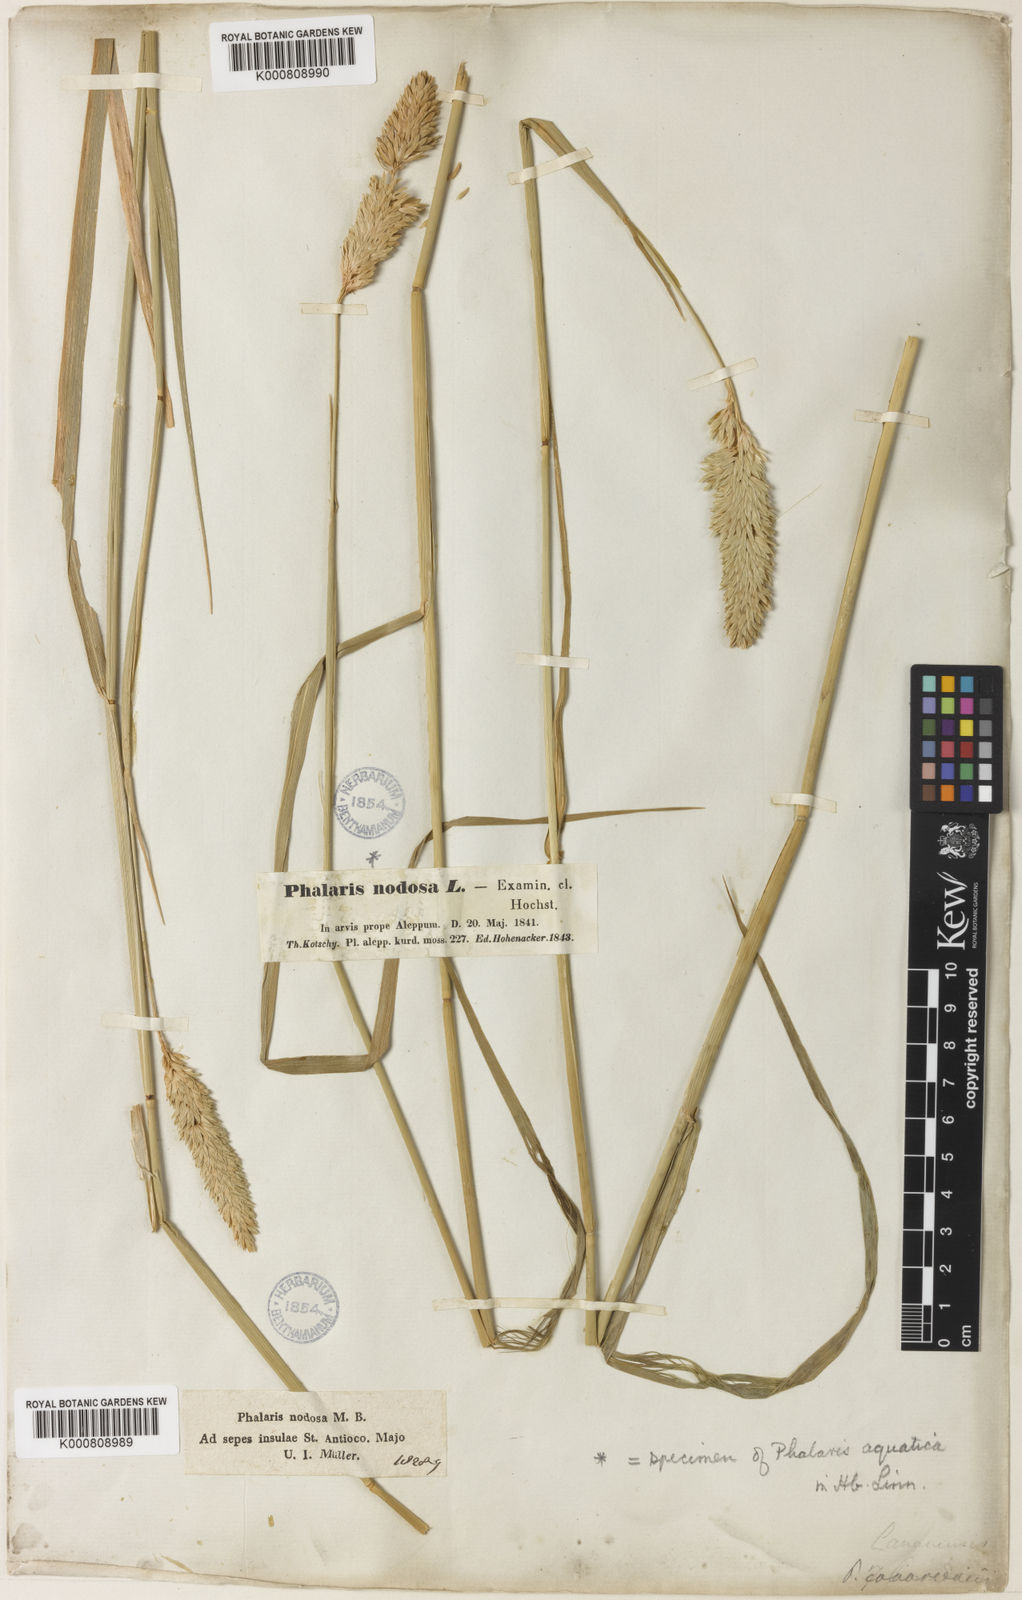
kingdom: Plantae
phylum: Tracheophyta
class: Liliopsida
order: Poales
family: Poaceae
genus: Phalaris
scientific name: Phalaris aquatica
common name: Bulbous canary-grass
